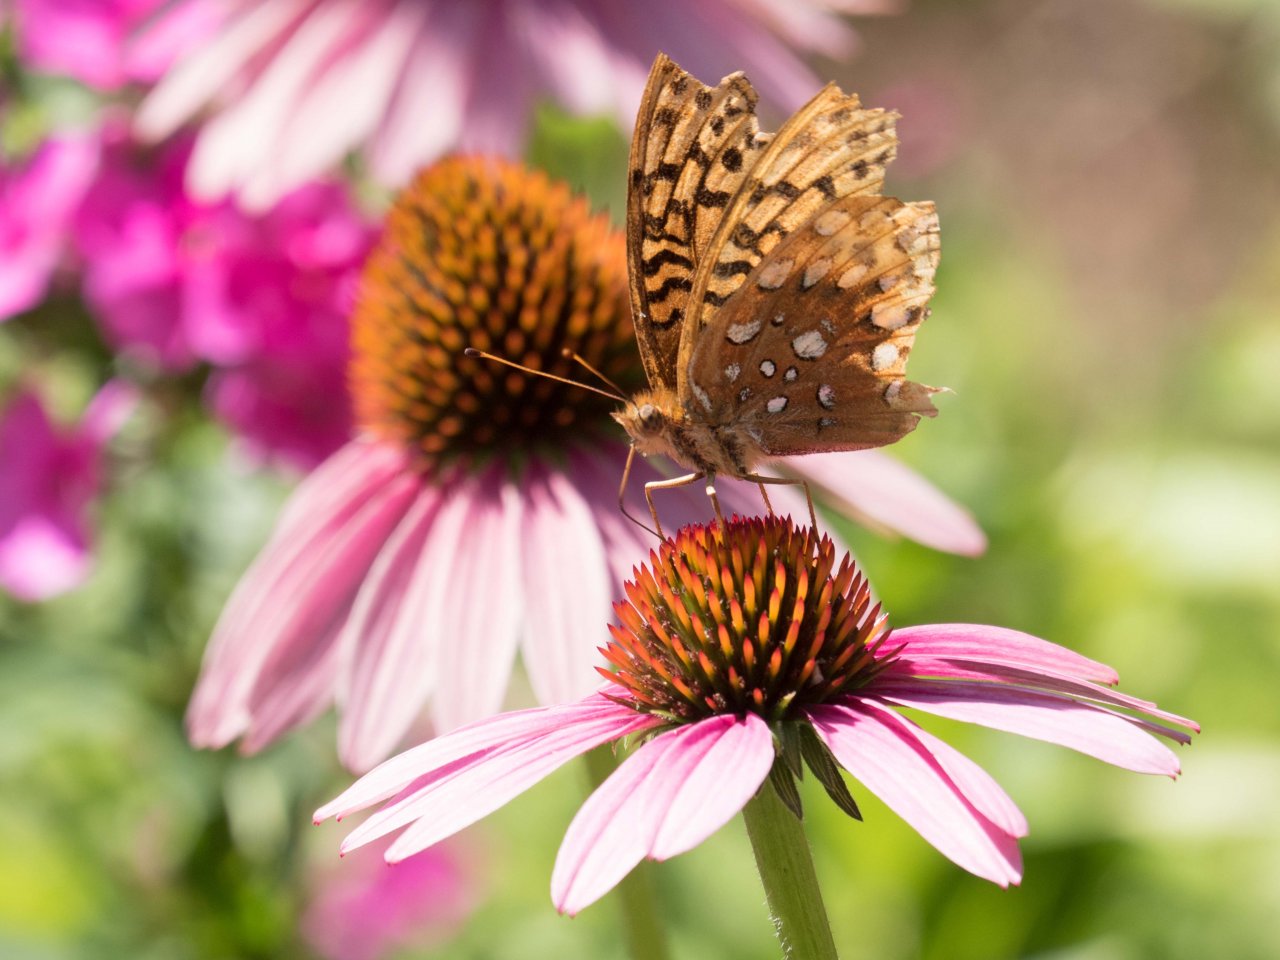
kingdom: Animalia
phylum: Arthropoda
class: Insecta
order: Lepidoptera
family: Nymphalidae
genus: Speyeria
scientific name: Speyeria cybele
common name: Great Spangled Fritillary
